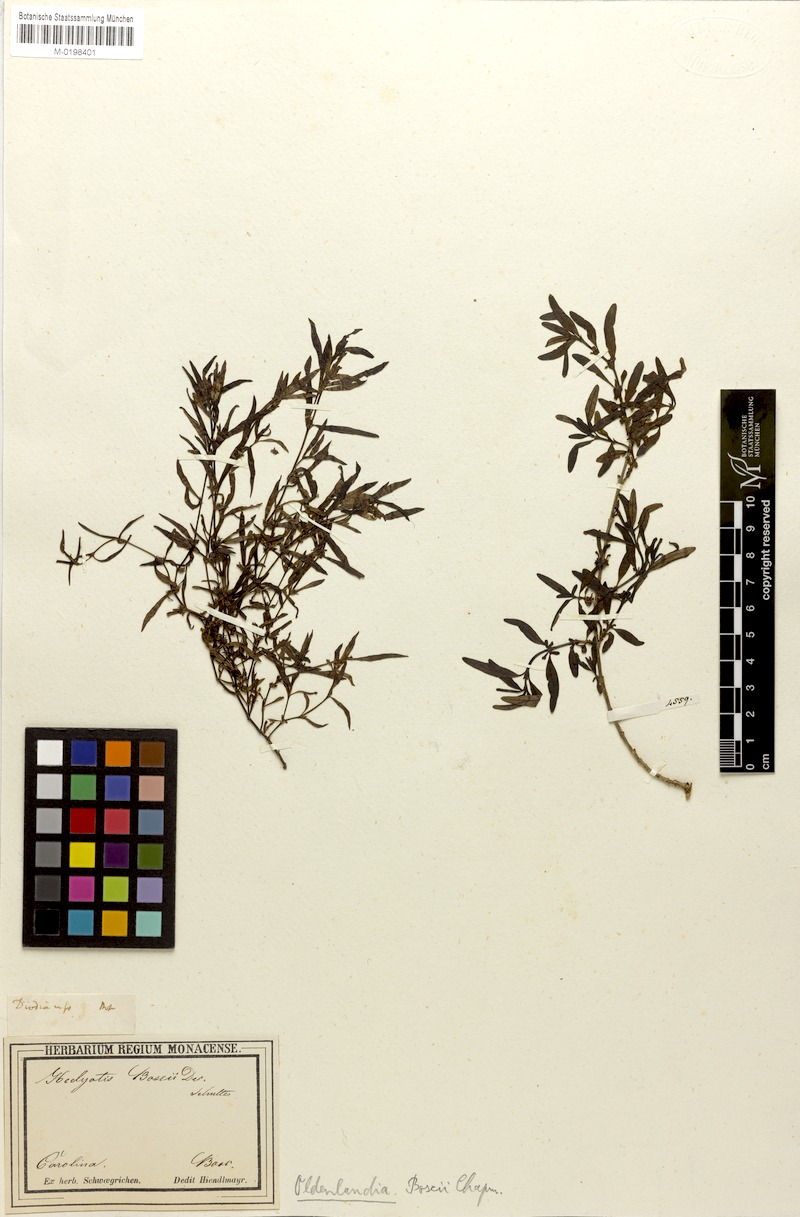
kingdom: Plantae
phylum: Tracheophyta
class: Magnoliopsida
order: Gentianales
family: Rubiaceae
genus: Oldenlandia
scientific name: Oldenlandia boscii
